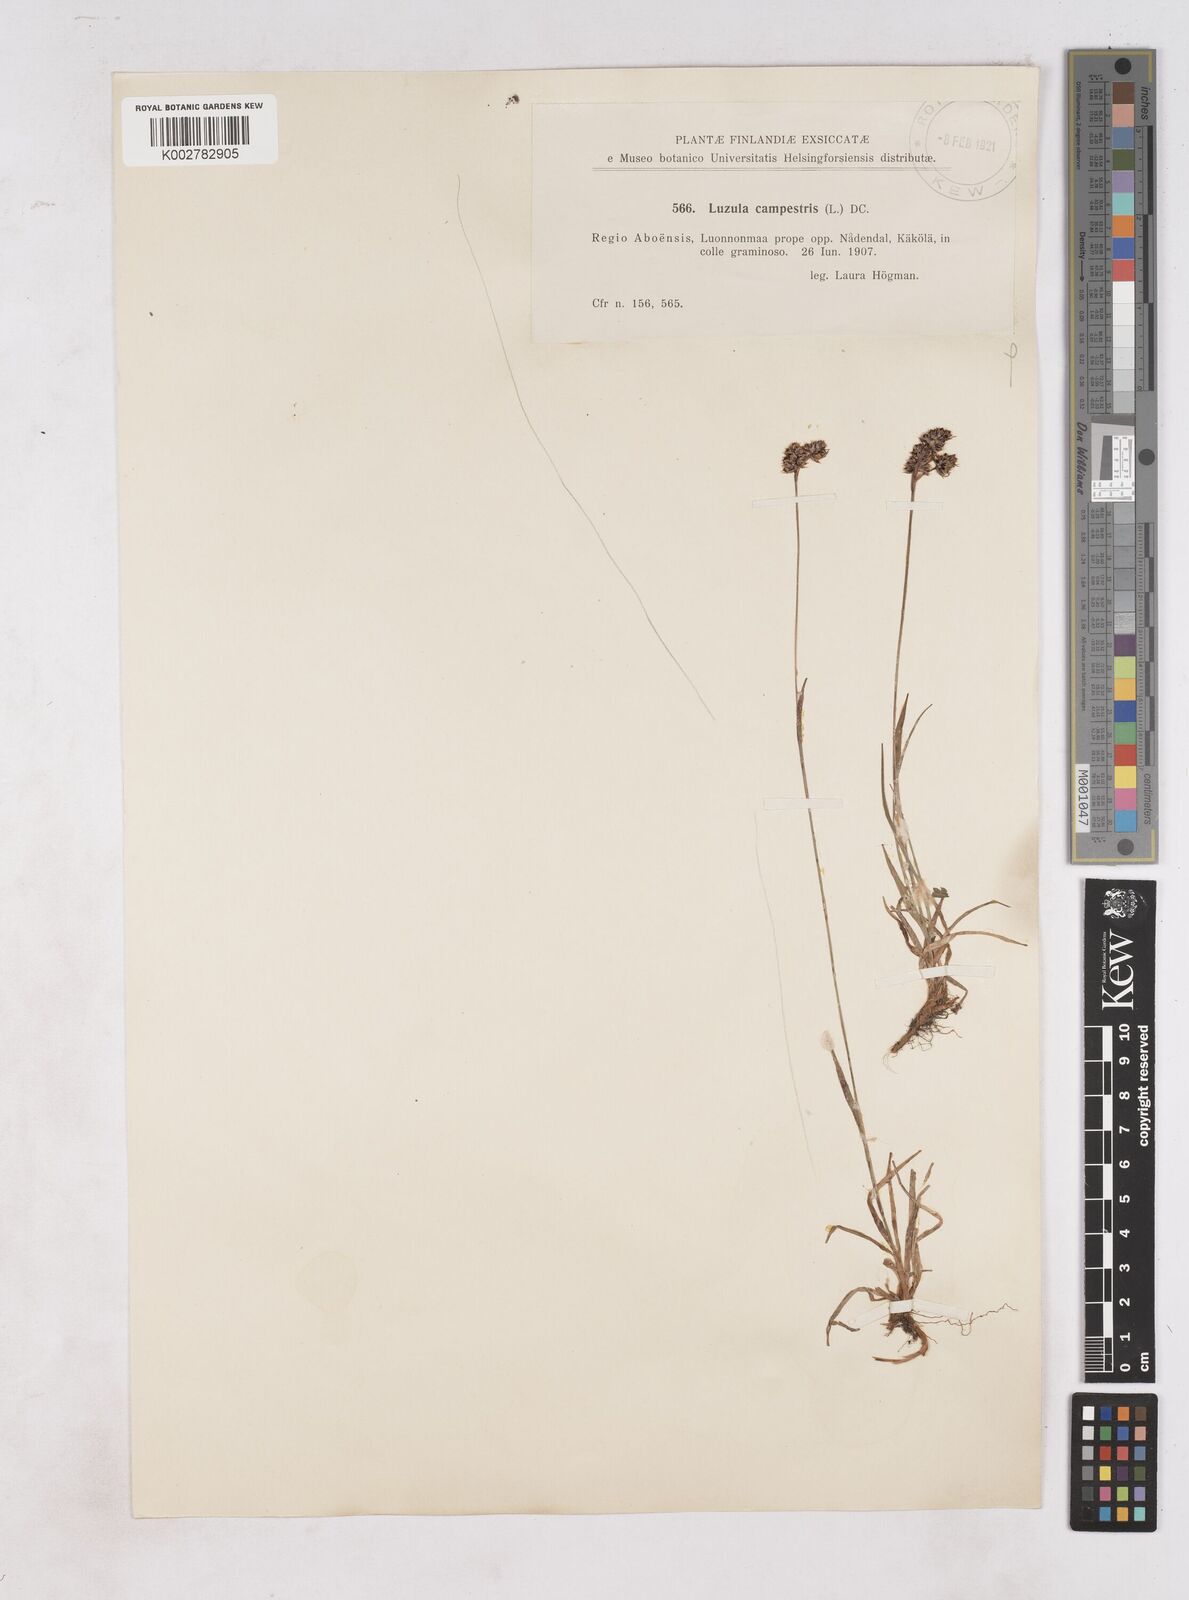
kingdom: Plantae
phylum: Tracheophyta
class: Liliopsida
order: Poales
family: Juncaceae
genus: Luzula
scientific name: Luzula campestris
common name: Field wood-rush
